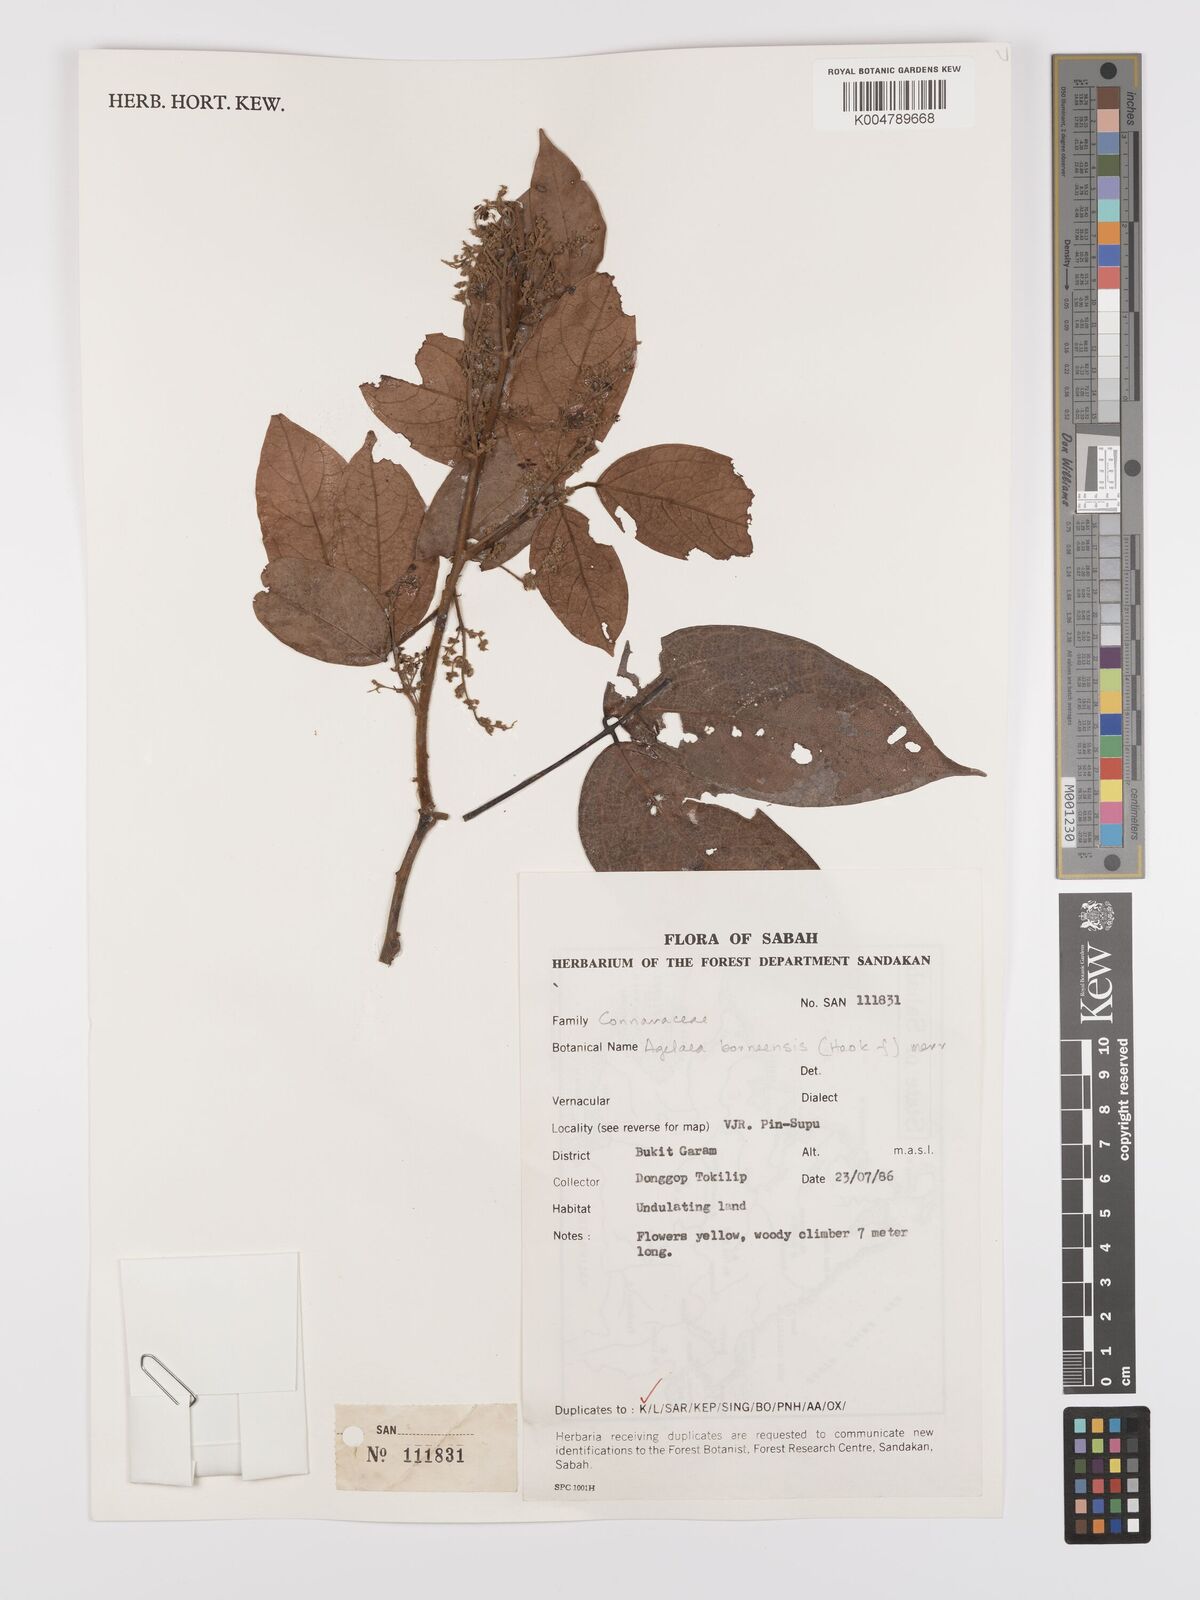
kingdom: Plantae
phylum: Tracheophyta
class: Magnoliopsida
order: Oxalidales
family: Connaraceae
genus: Agelaea
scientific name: Agelaea borneensis
